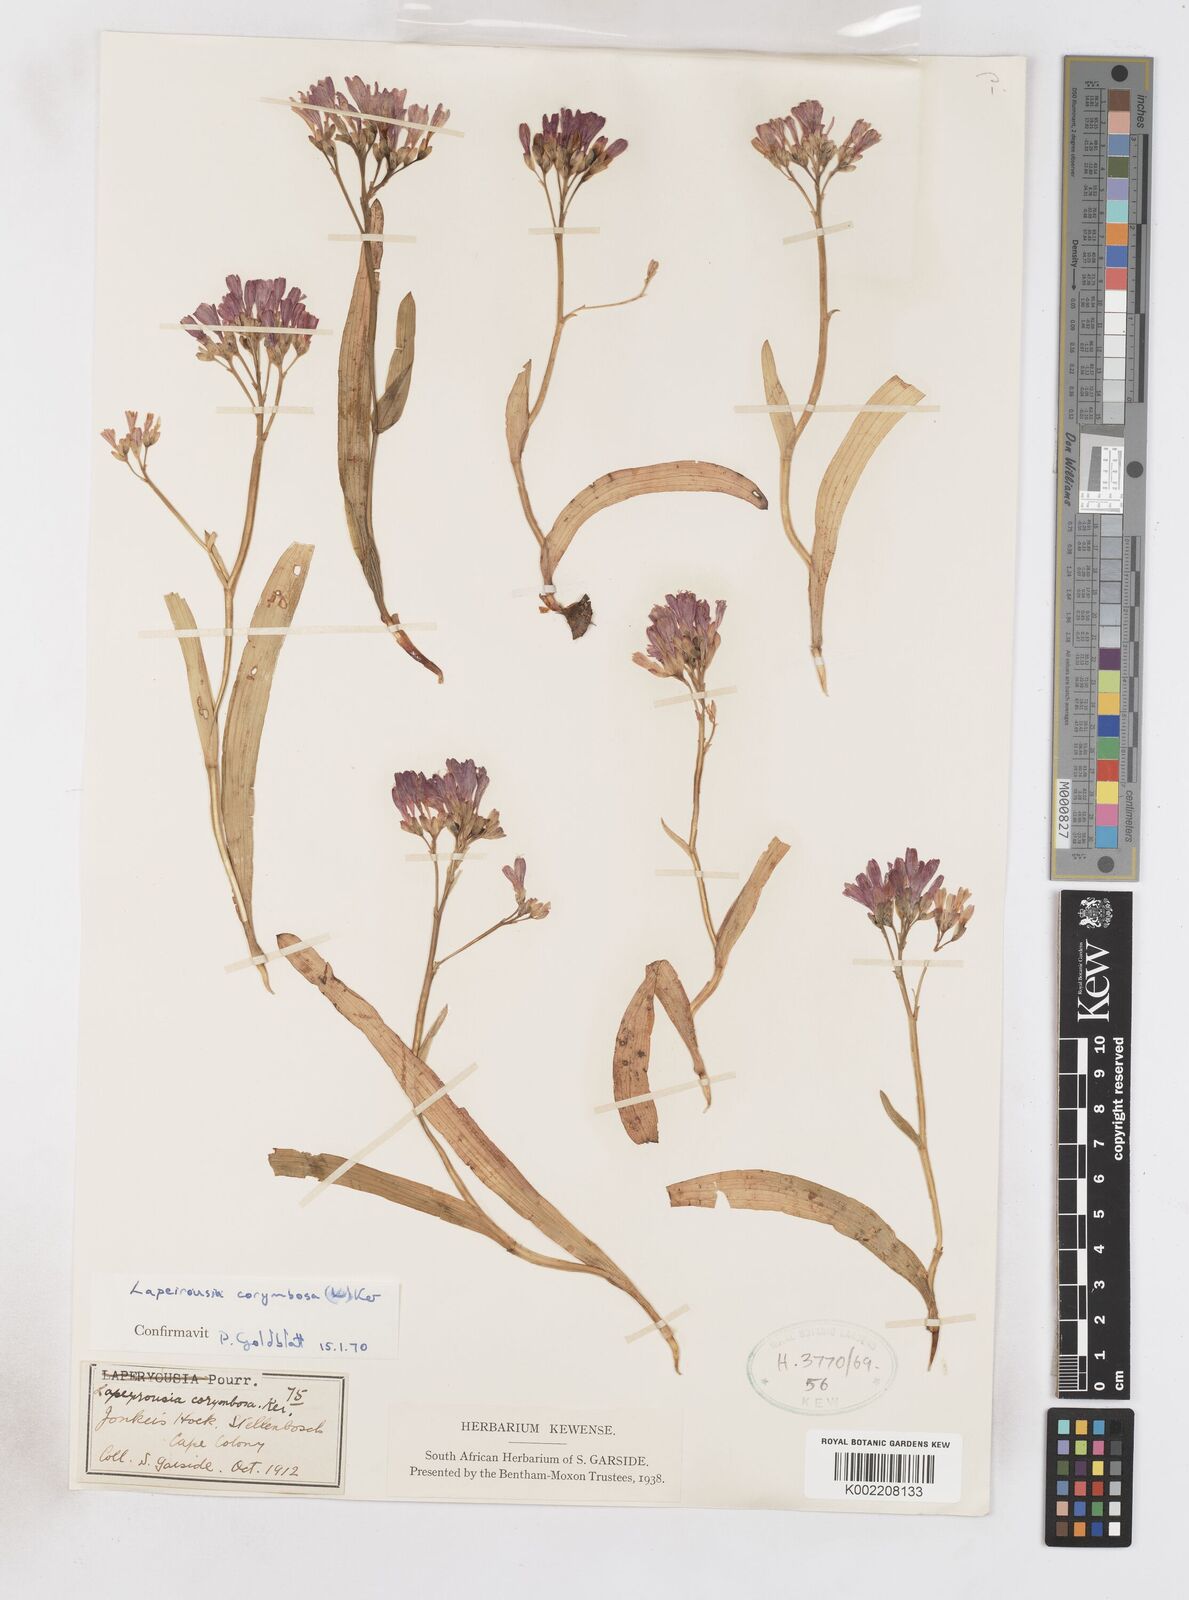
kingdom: Plantae
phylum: Tracheophyta
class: Liliopsida
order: Asparagales
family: Iridaceae
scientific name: Iridaceae
